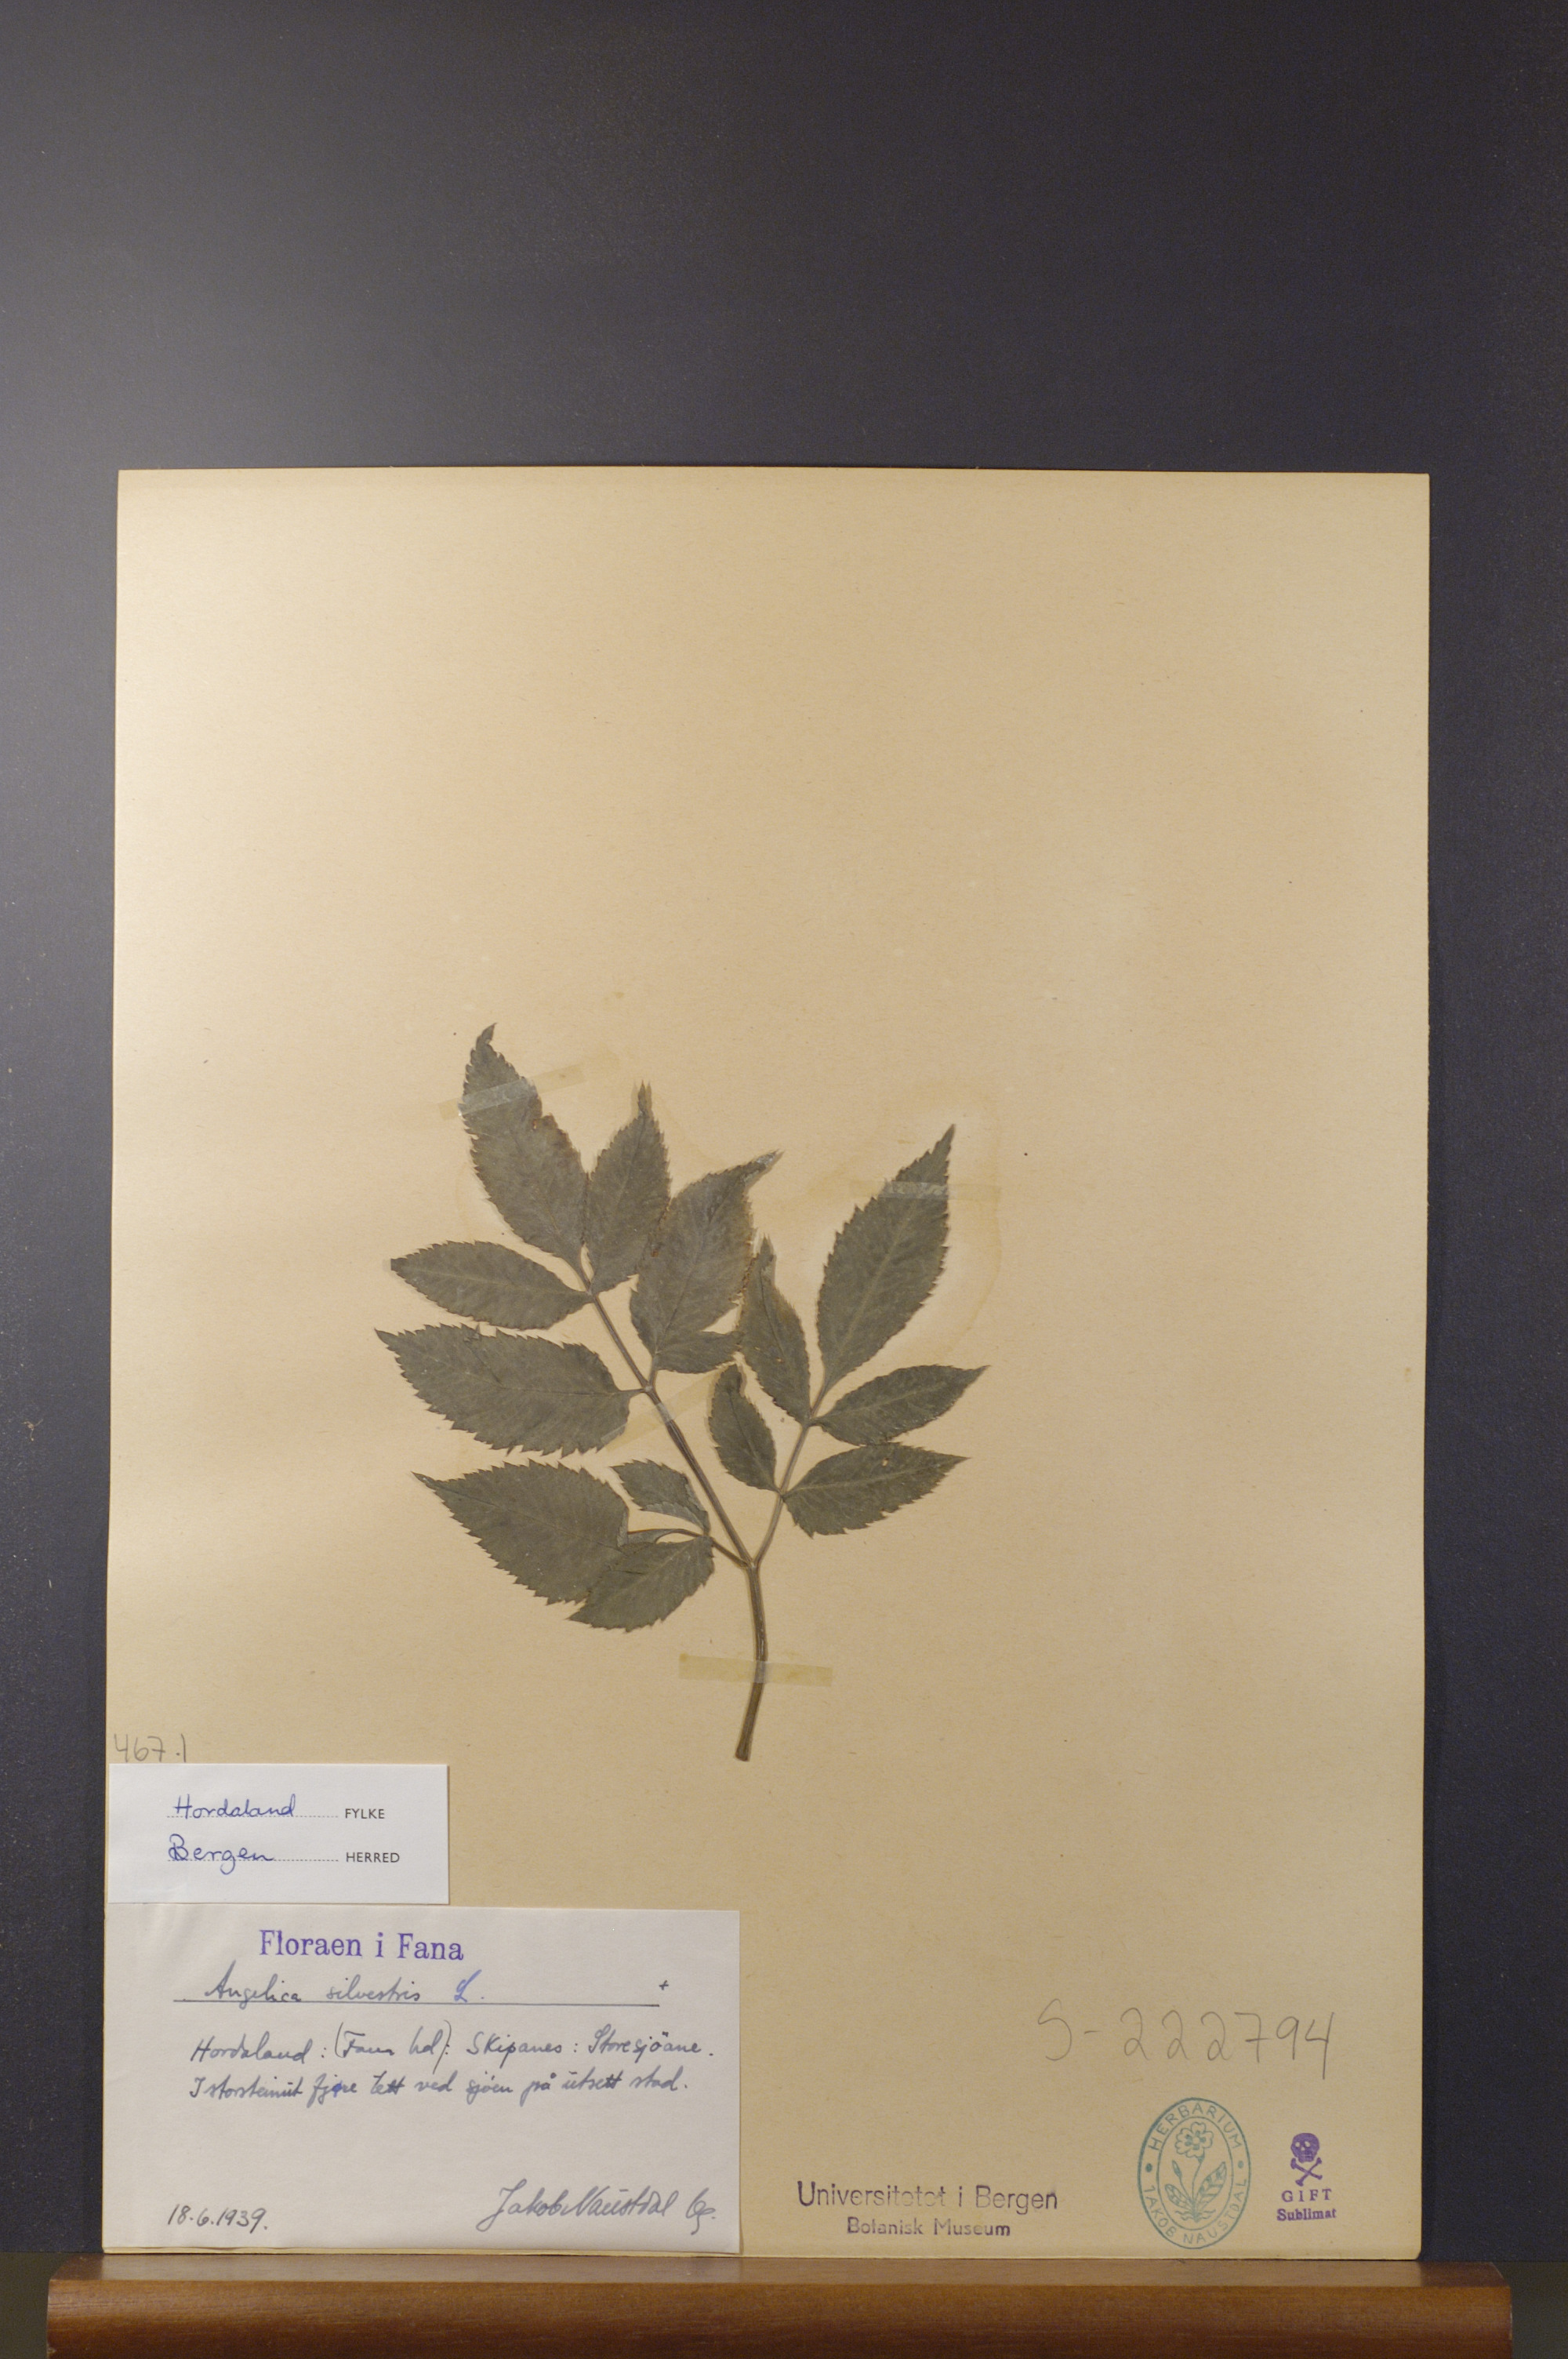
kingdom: Plantae
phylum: Tracheophyta
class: Magnoliopsida
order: Apiales
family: Apiaceae
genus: Angelica
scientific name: Angelica sylvestris
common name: Wild angelica
